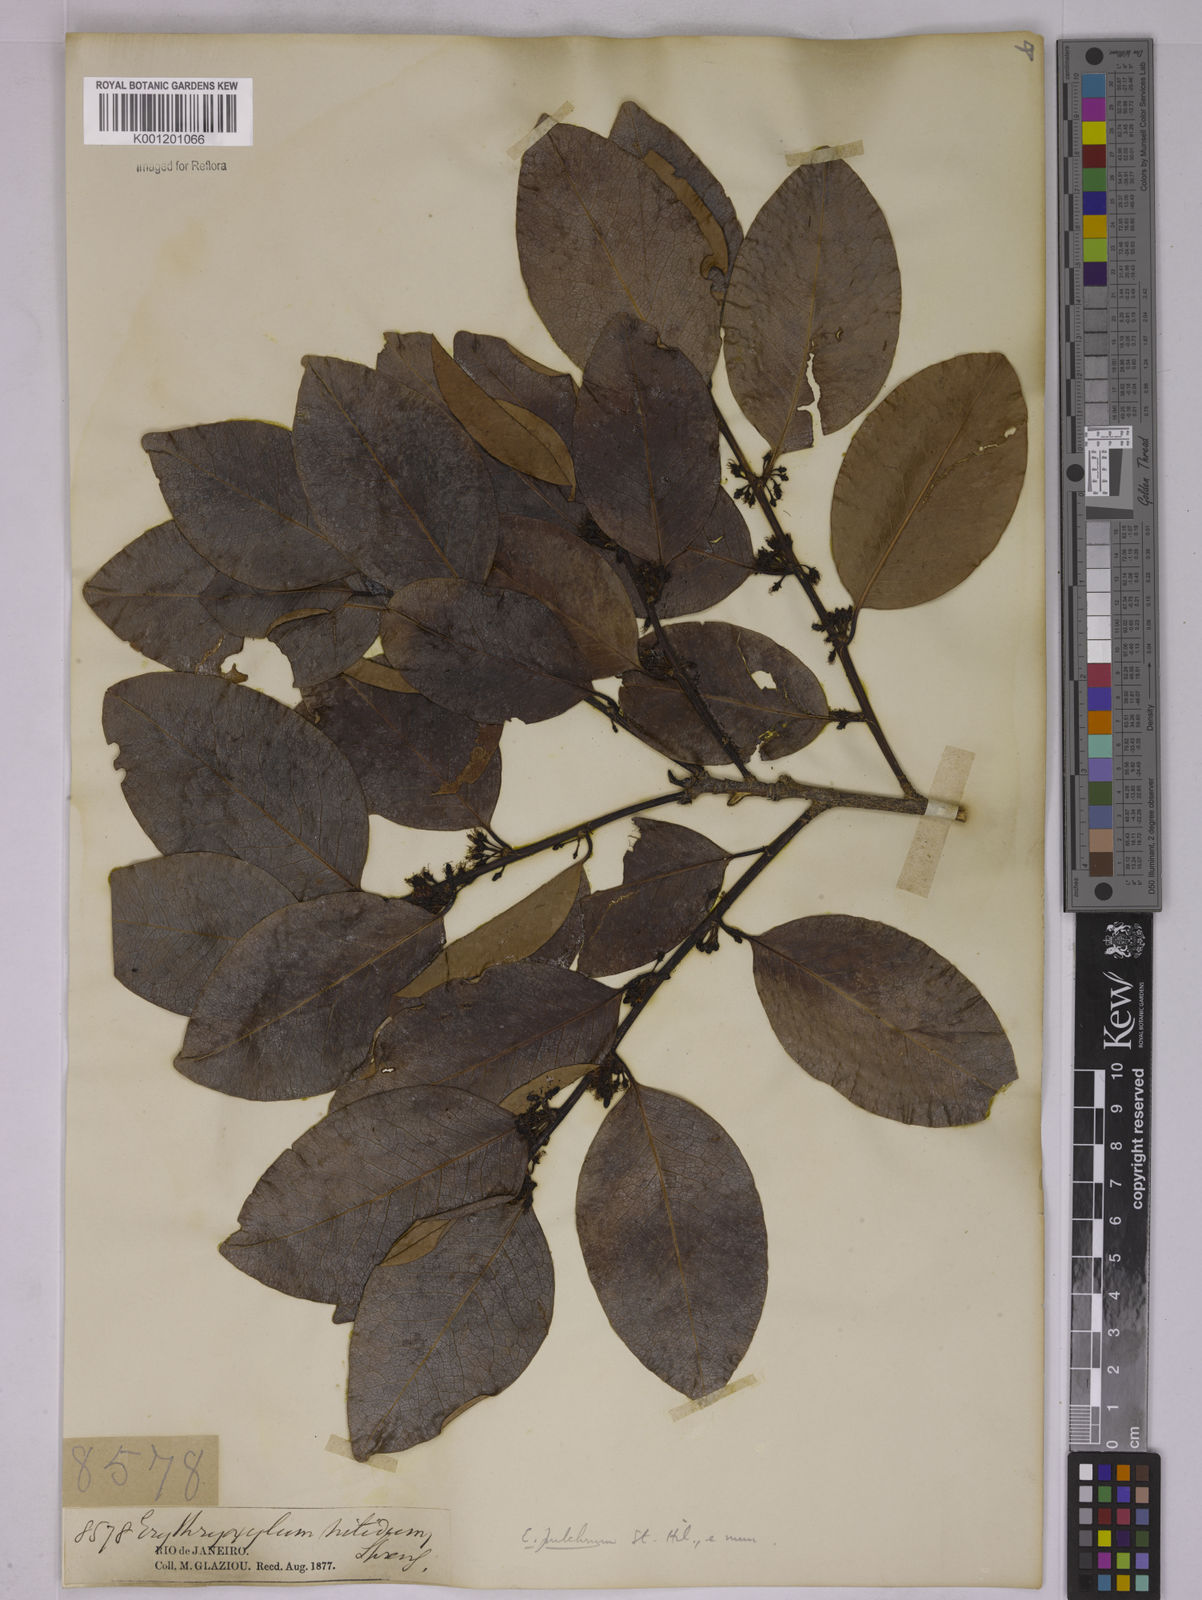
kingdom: Plantae
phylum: Tracheophyta
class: Magnoliopsida
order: Malpighiales
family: Erythroxylaceae
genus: Erythroxylum
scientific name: Erythroxylum pulchrum
